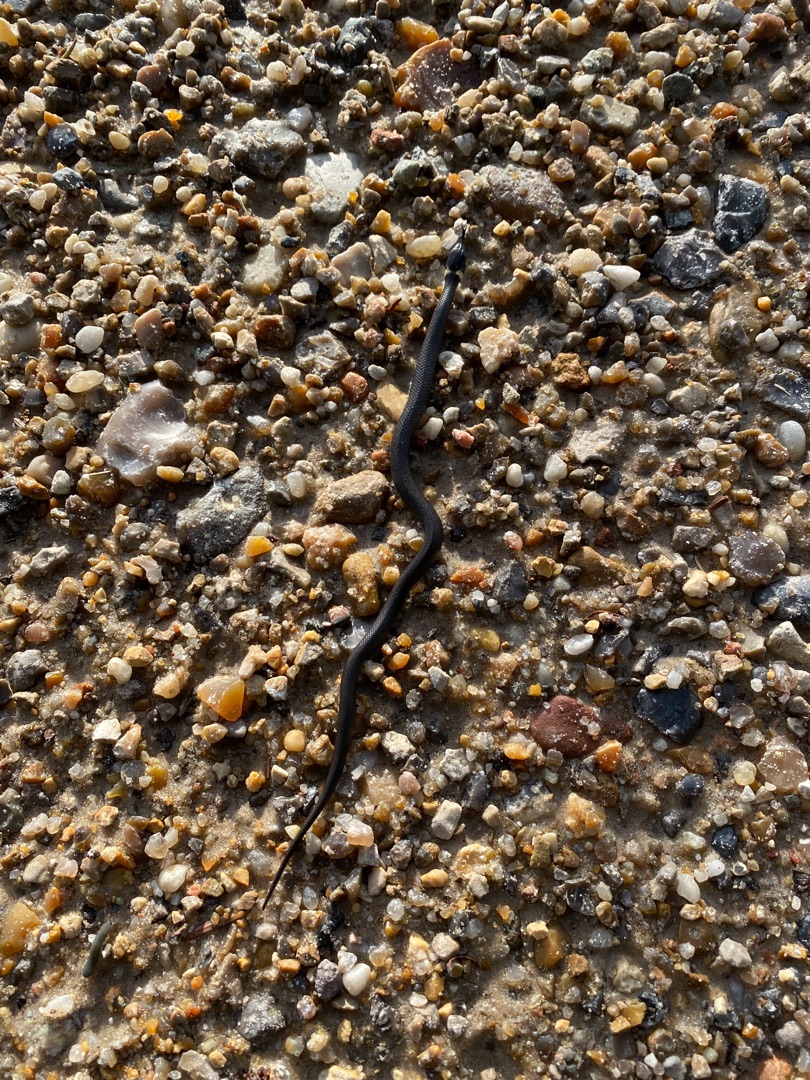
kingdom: Animalia
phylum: Chordata
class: Squamata
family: Colubridae
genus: Natrix
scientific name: Natrix natrix
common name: Snog
